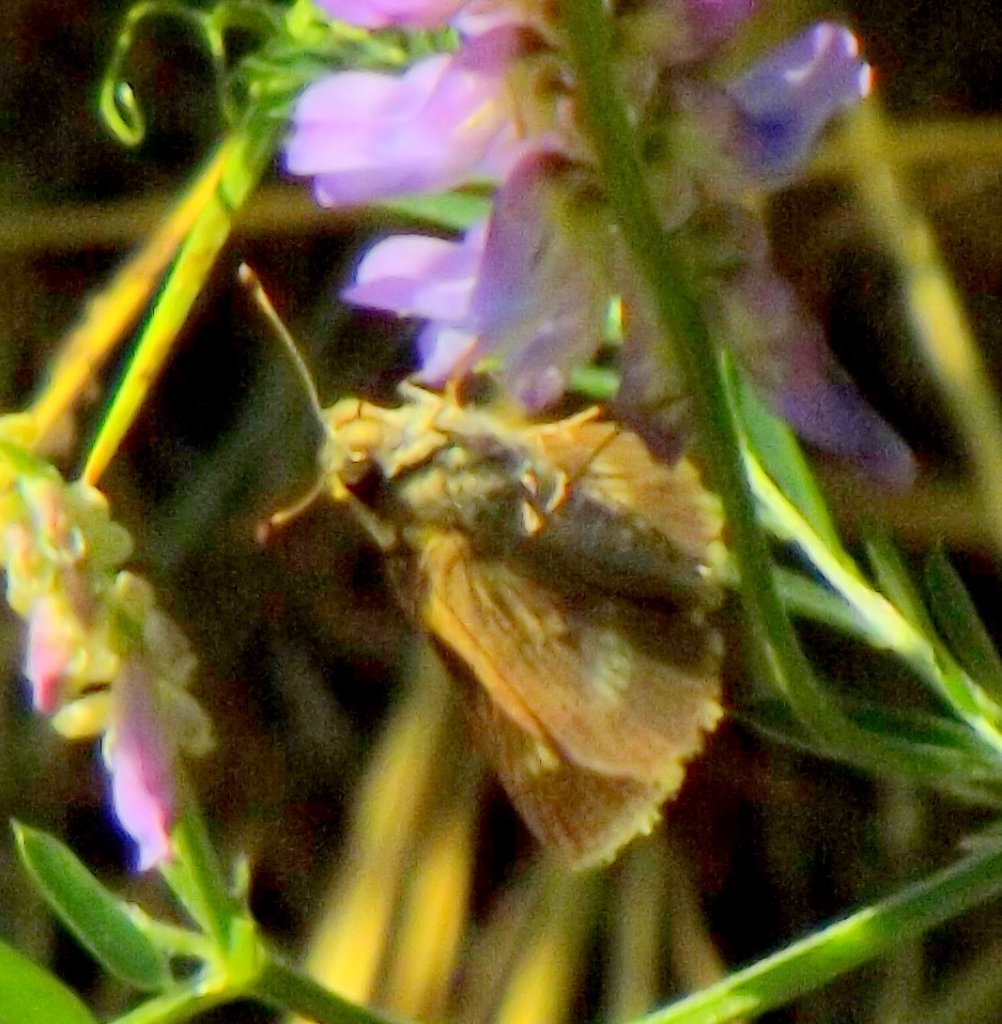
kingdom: Animalia
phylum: Arthropoda
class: Insecta
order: Lepidoptera
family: Hesperiidae
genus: Polites
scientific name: Polites egeremet
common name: Northern Broken-Dash
